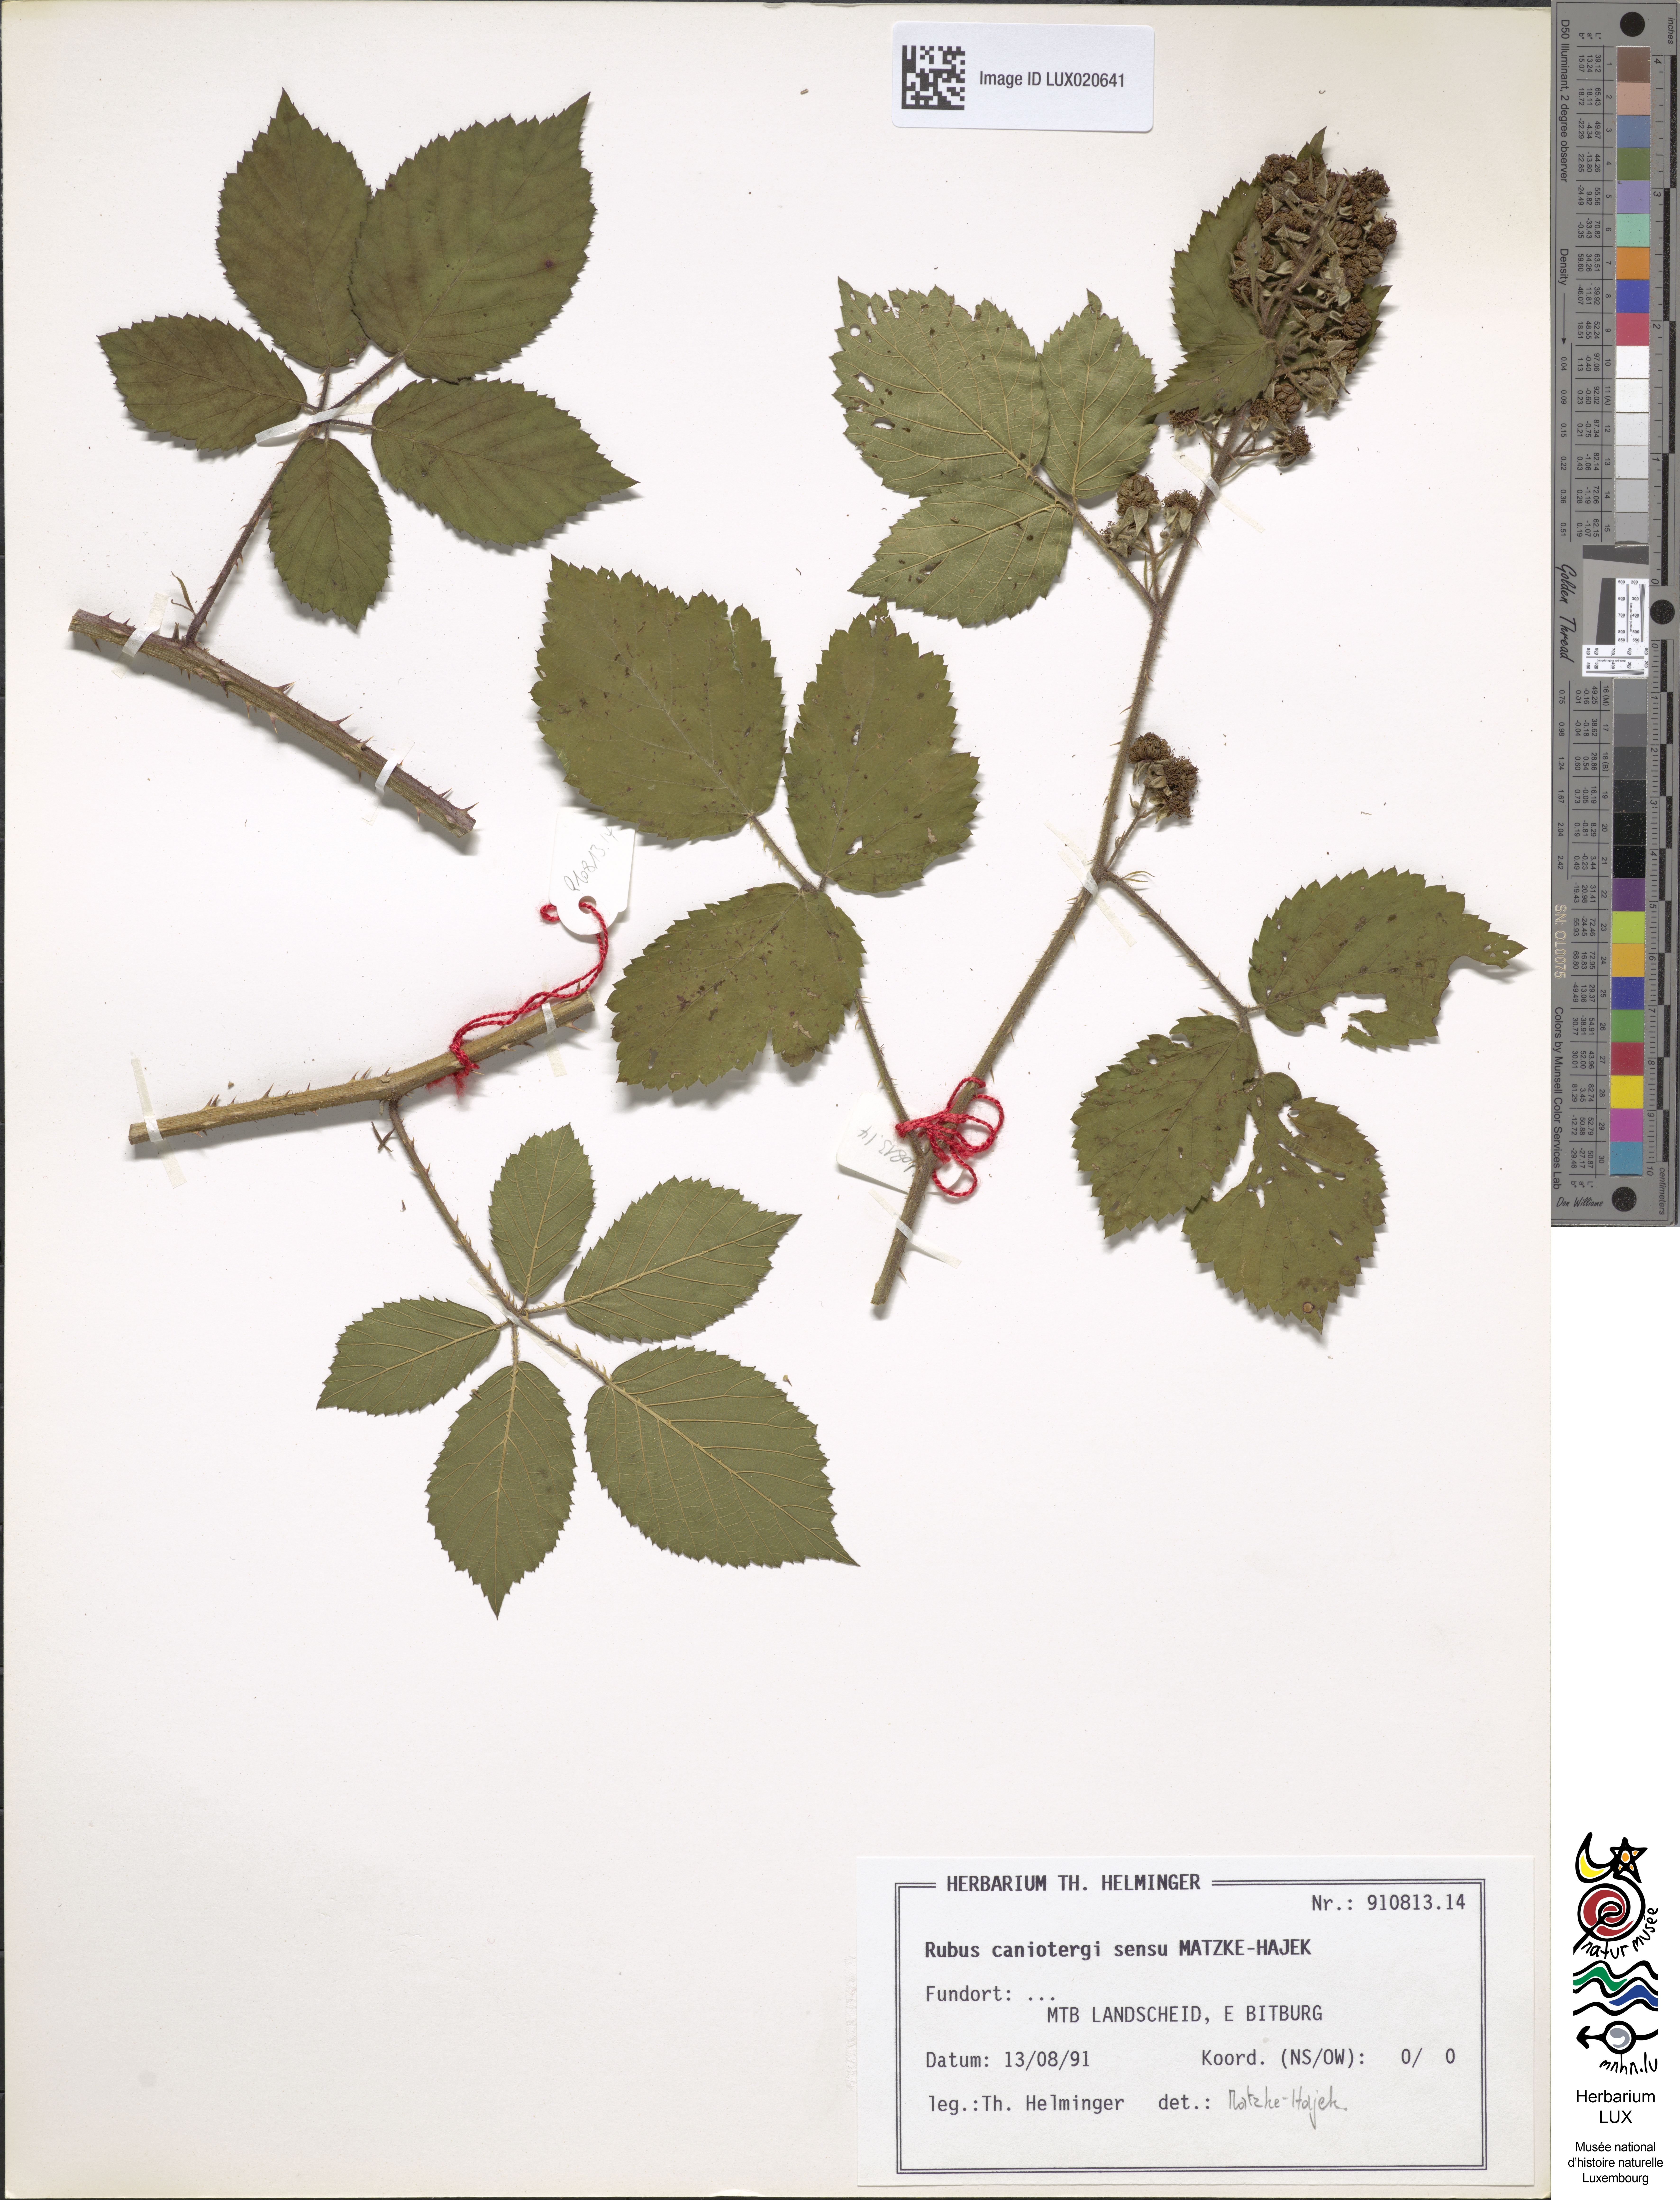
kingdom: Plantae
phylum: Tracheophyta
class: Magnoliopsida
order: Rosales
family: Rosaceae
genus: Rubus
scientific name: Rubus caninitergi
